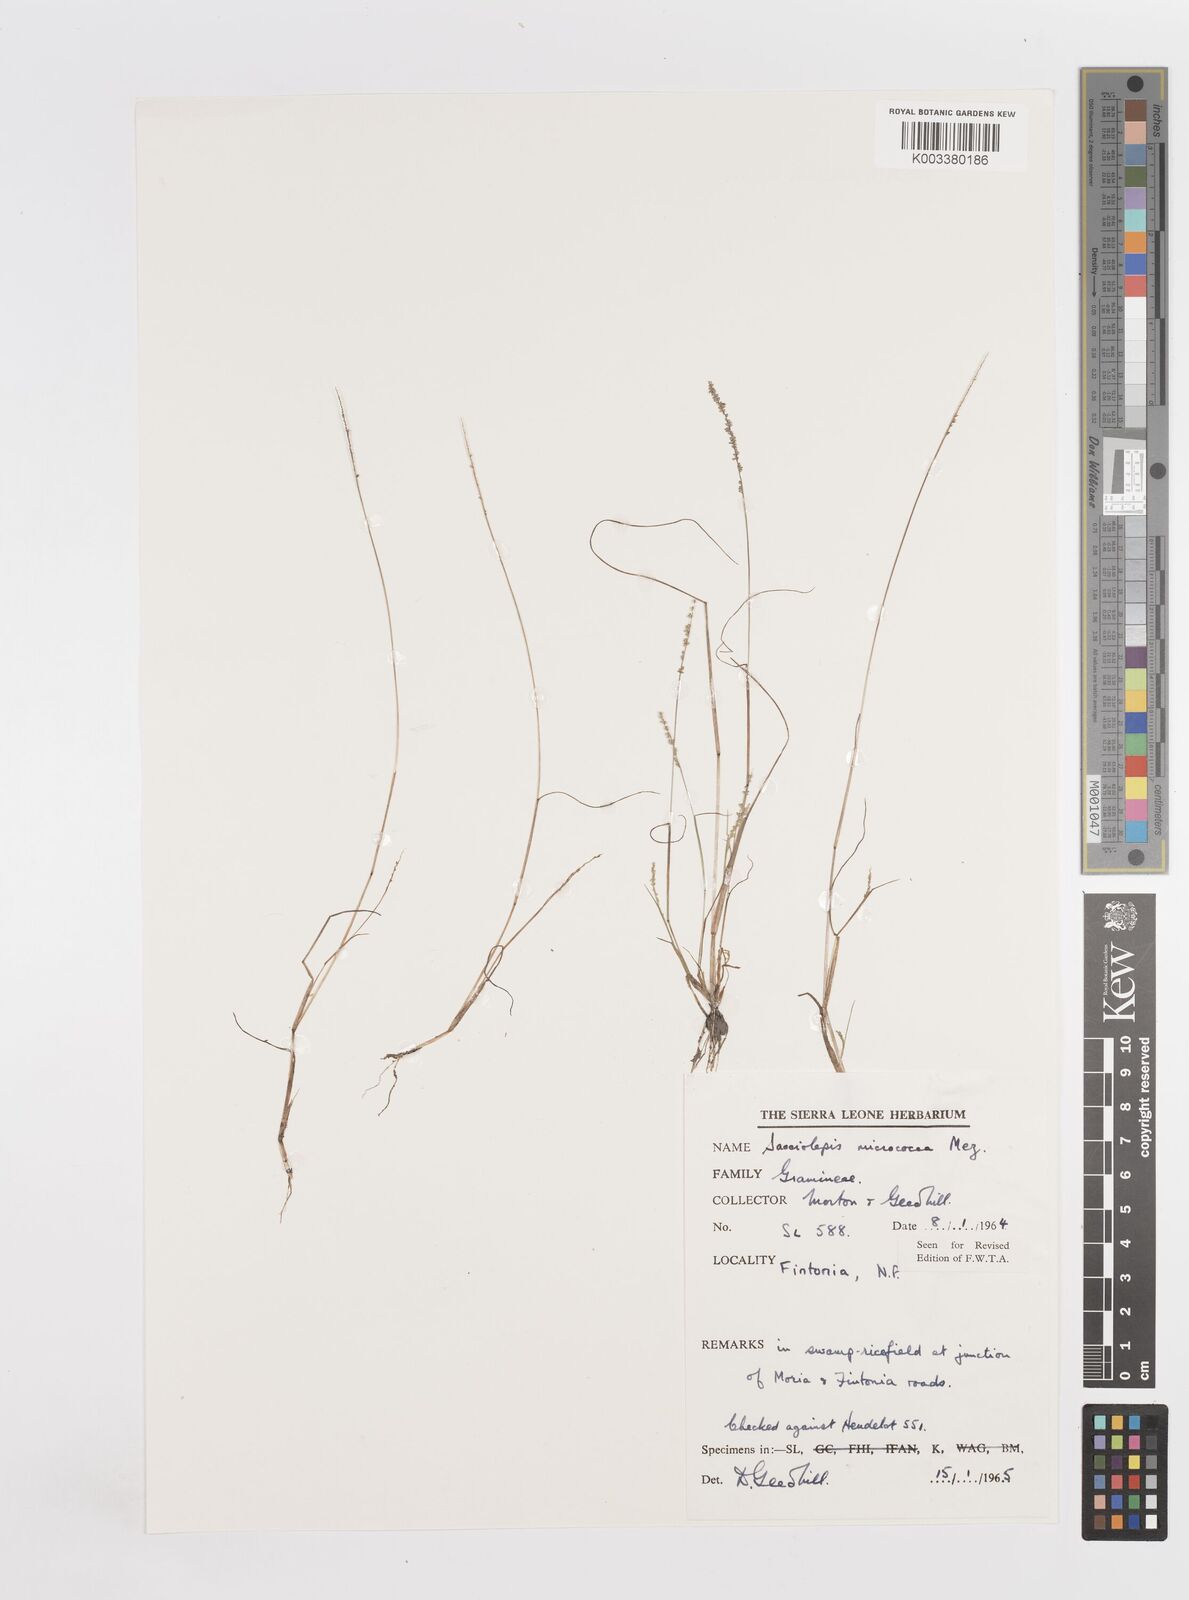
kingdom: Plantae
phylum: Tracheophyta
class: Liliopsida
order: Poales
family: Poaceae
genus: Sacciolepis
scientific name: Sacciolepis micrococca
